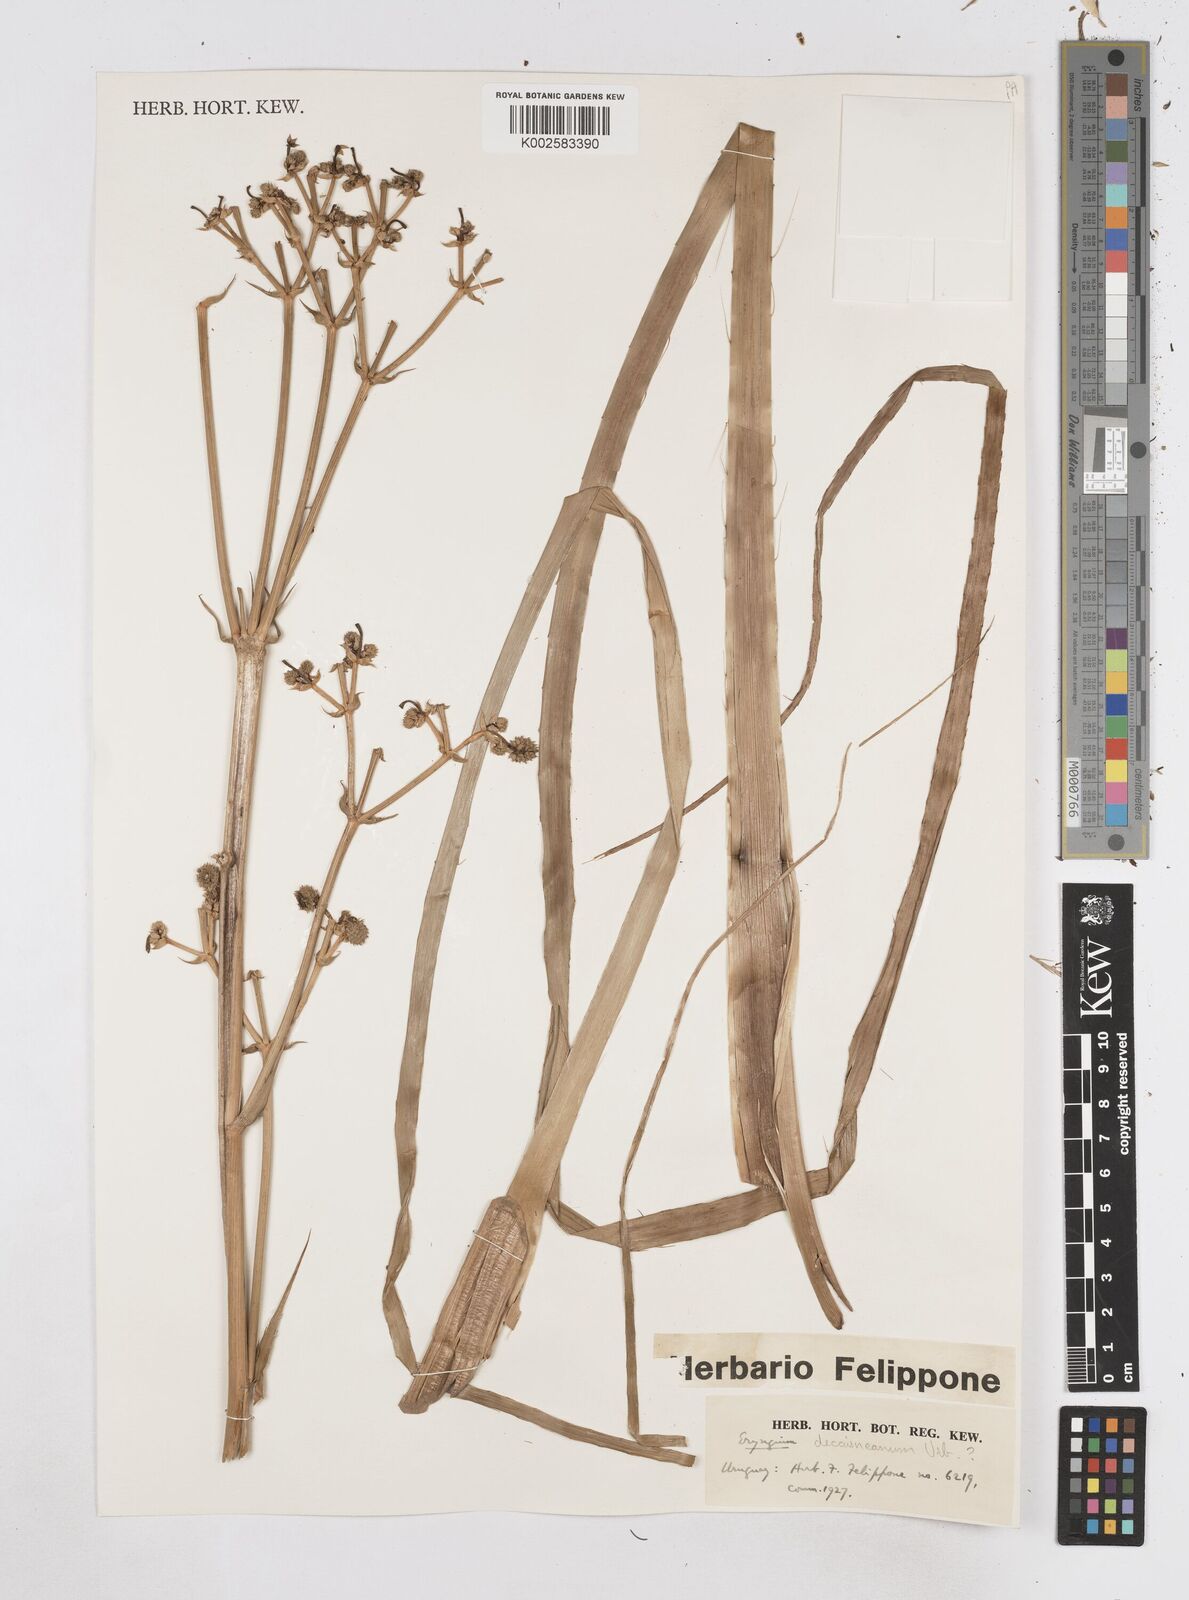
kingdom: Plantae
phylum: Tracheophyta
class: Magnoliopsida
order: Apiales
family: Apiaceae
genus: Eryngium
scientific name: Eryngium pandanifolium
